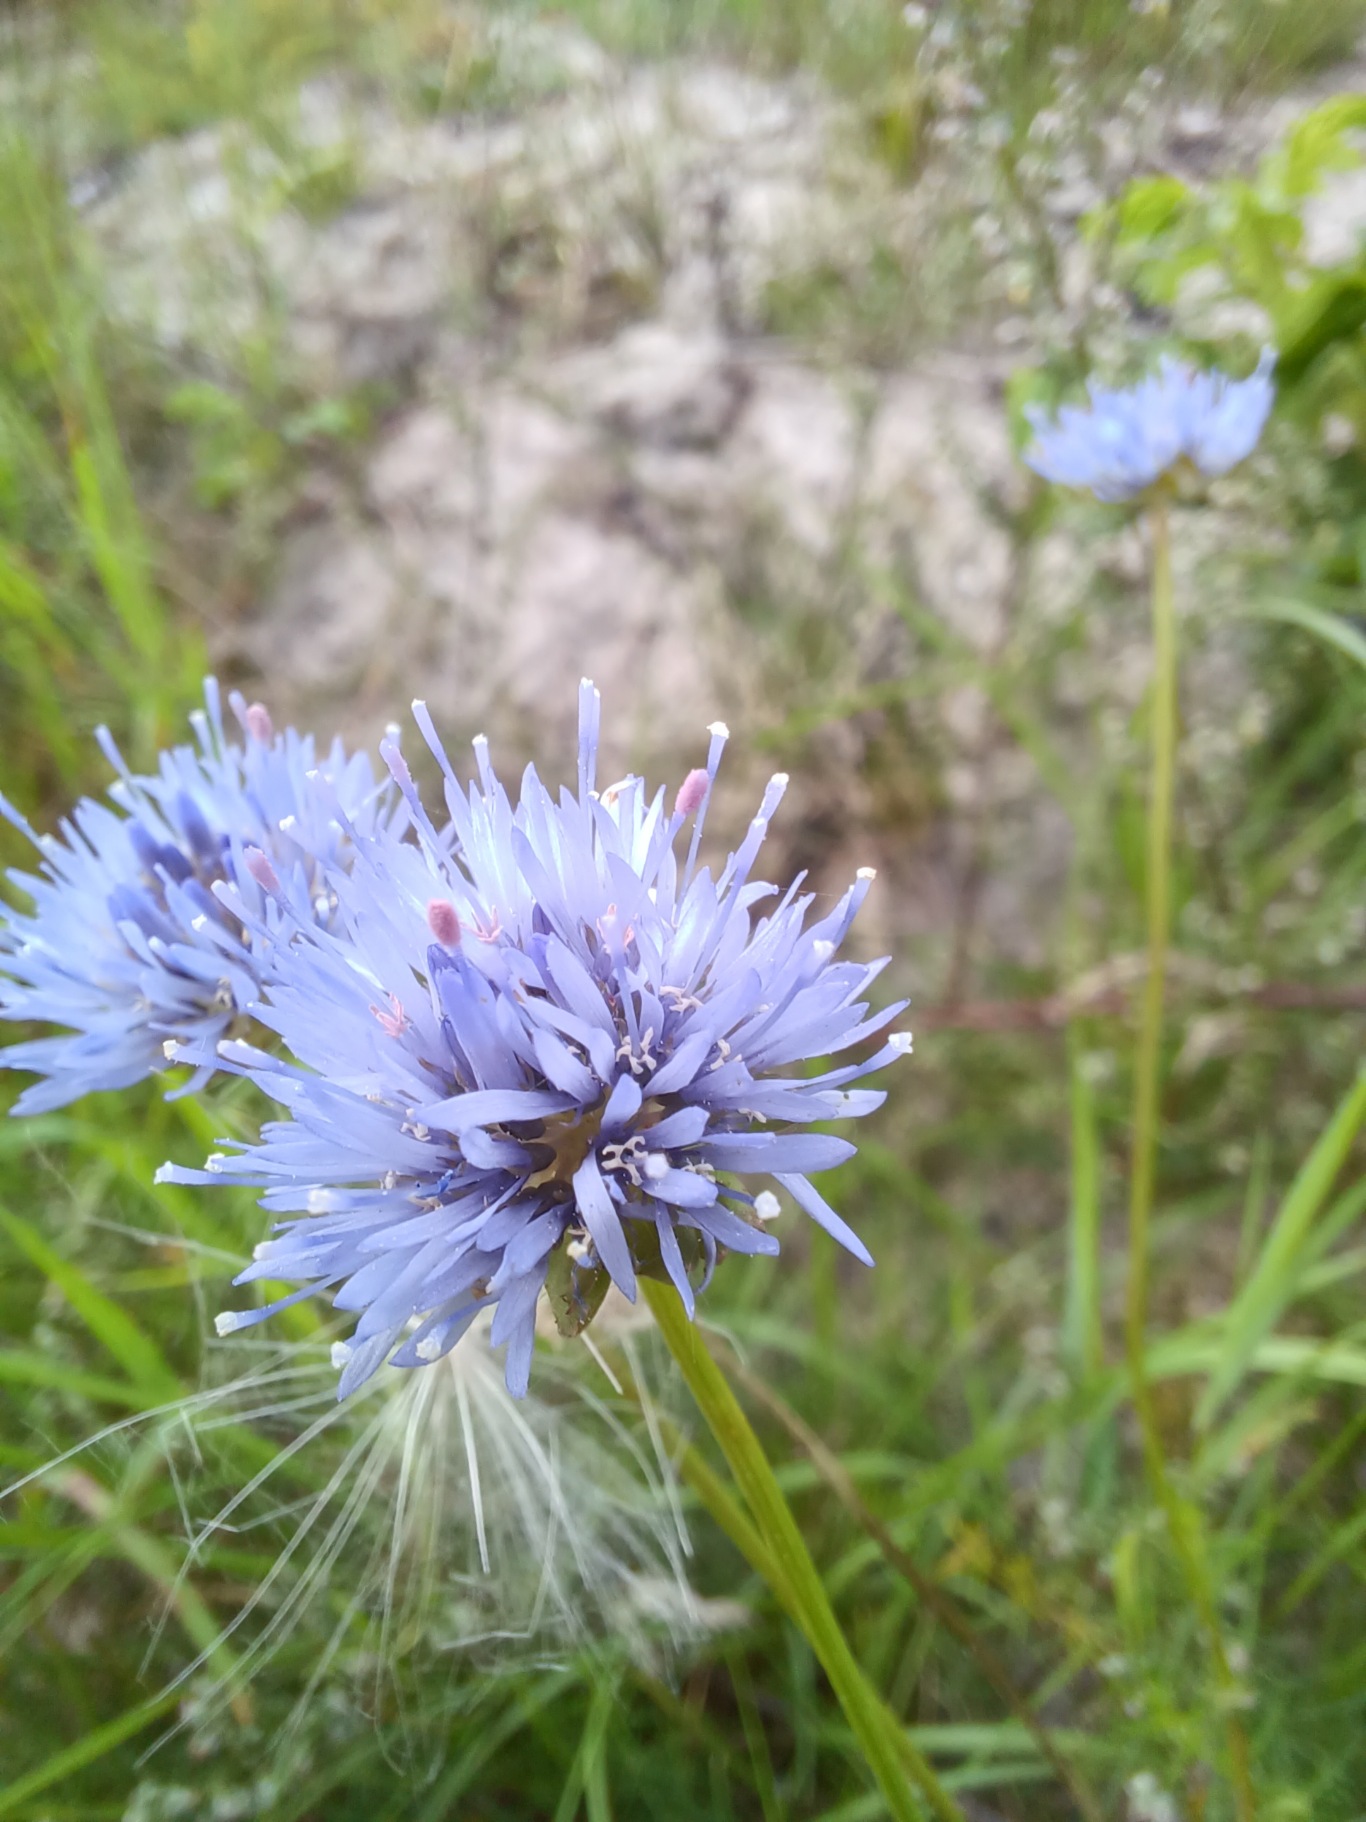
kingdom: Plantae
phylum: Tracheophyta
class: Magnoliopsida
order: Asterales
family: Campanulaceae
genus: Jasione
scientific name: Jasione montana
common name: Blåmunke
